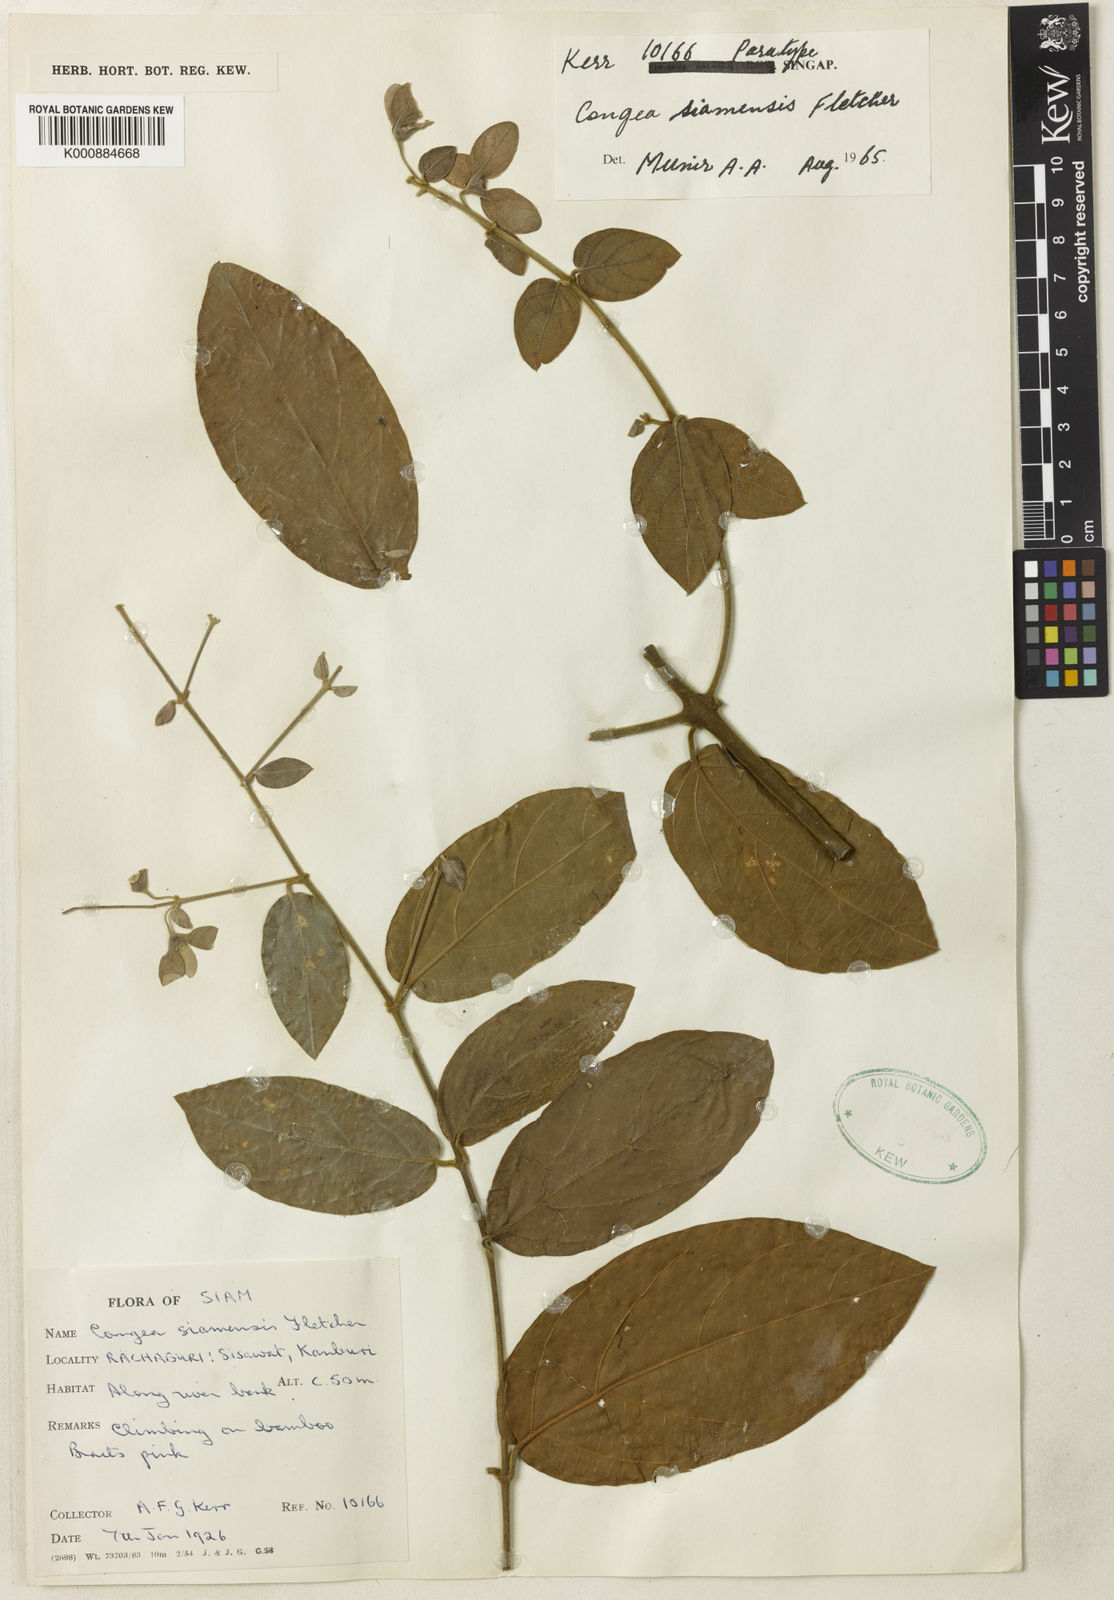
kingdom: Plantae
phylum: Tracheophyta
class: Magnoliopsida
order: Lamiales
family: Lamiaceae
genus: Congea
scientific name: Congea velutina
